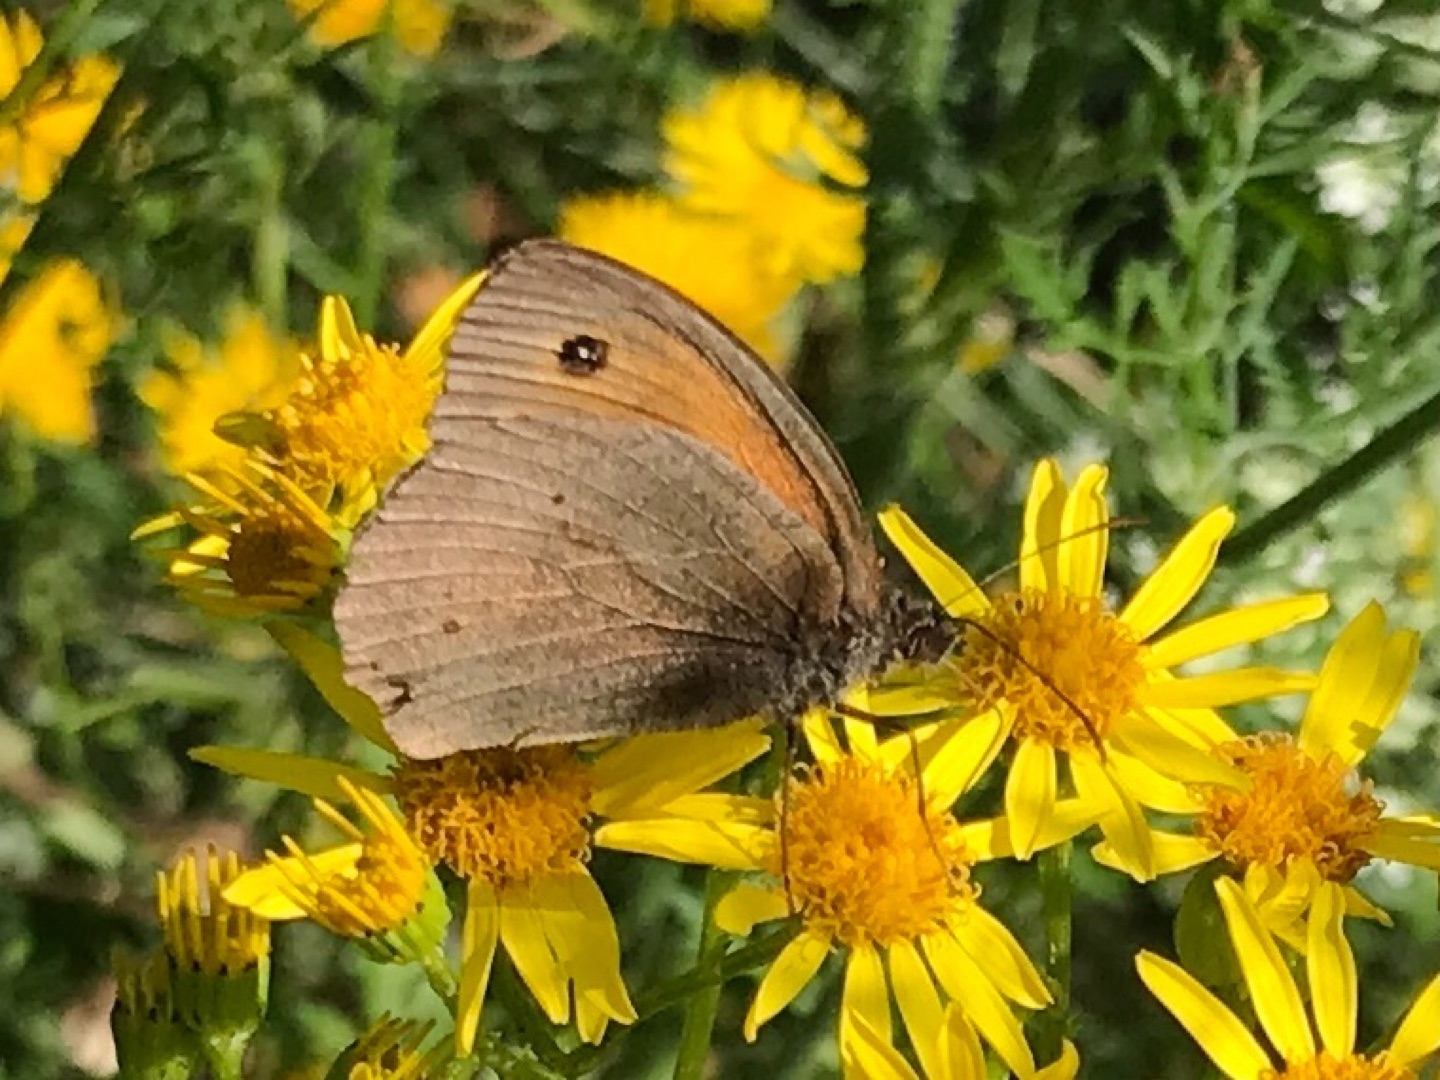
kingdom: Animalia
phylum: Arthropoda
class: Insecta
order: Lepidoptera
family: Nymphalidae
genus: Maniola
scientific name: Maniola jurtina
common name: Græsrandøje
